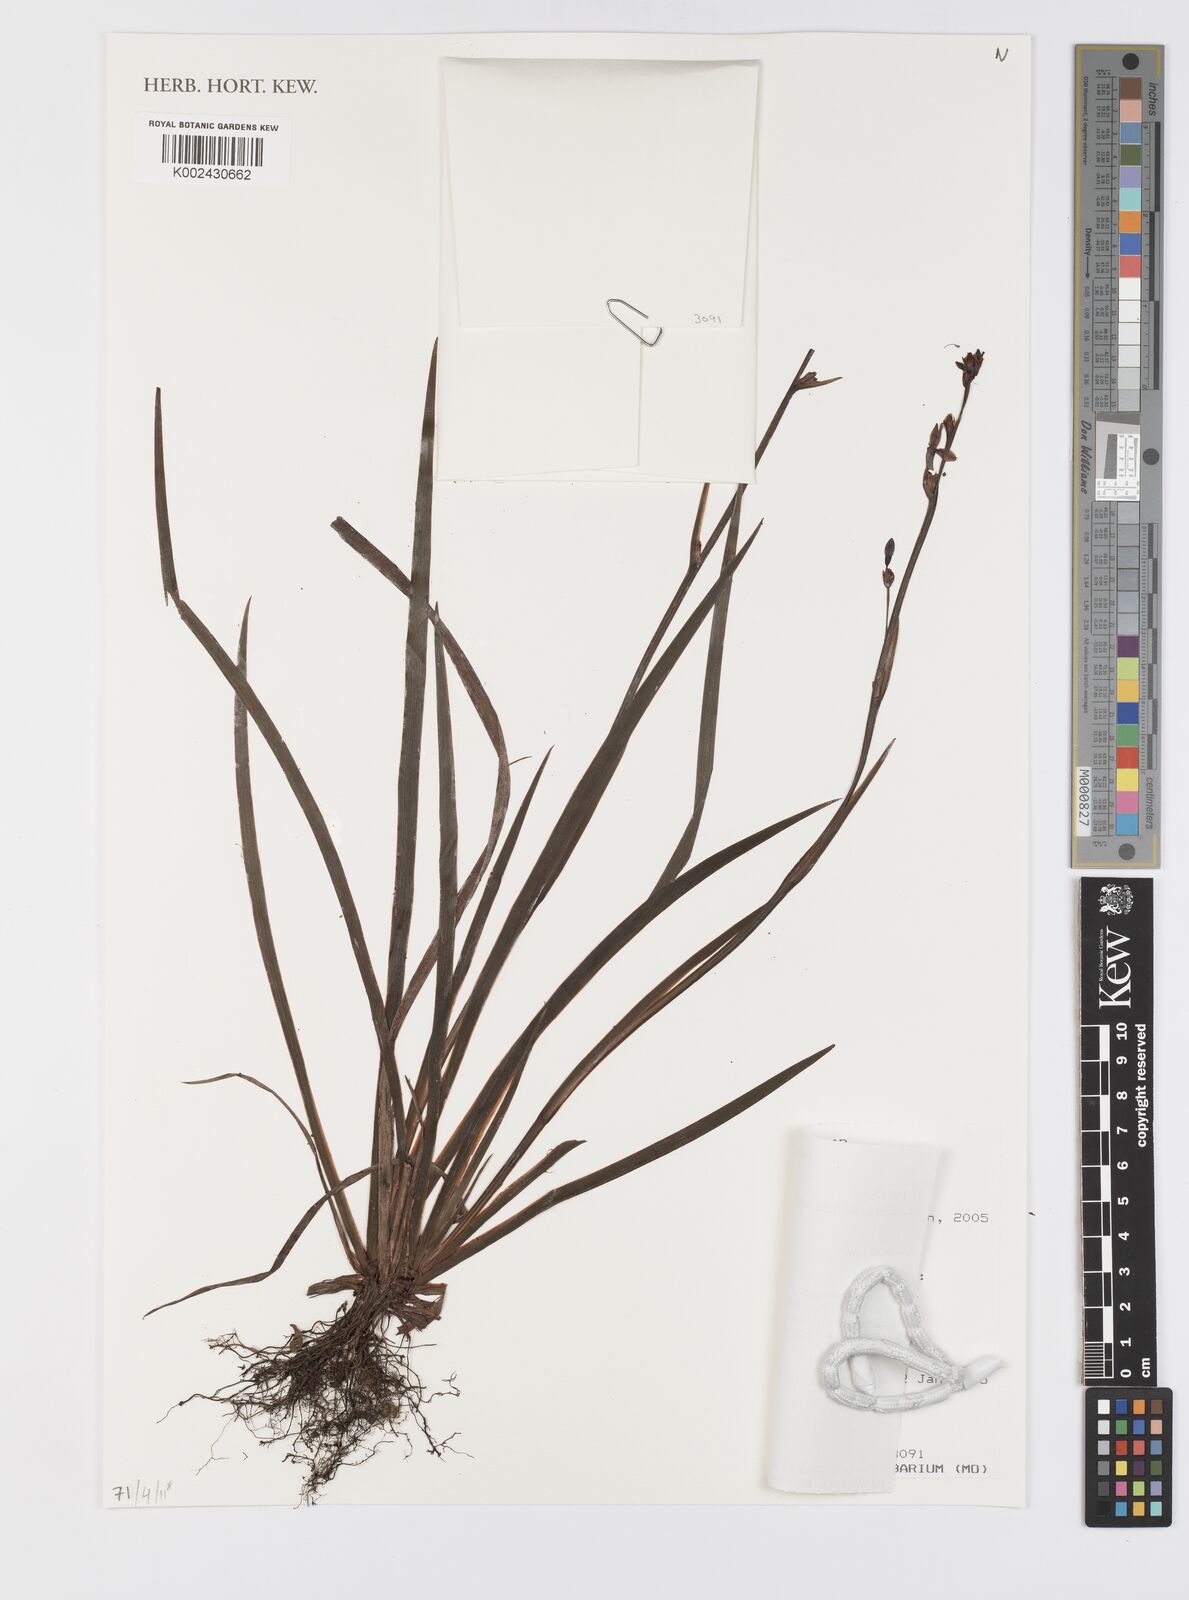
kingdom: Plantae
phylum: Tracheophyta
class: Liliopsida
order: Asparagales
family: Iridaceae
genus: Aristea
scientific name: Aristea cladocarpa
